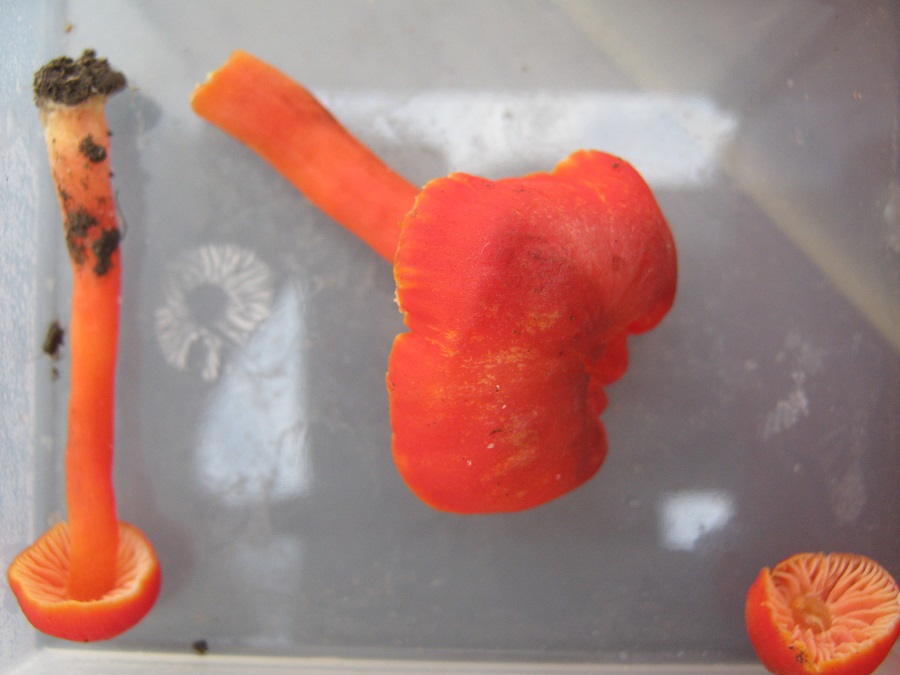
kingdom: Fungi
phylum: Basidiomycota
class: Agaricomycetes
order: Agaricales
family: Hygrophoraceae
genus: Hygrocybe
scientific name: Hygrocybe phaeococcinea
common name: sortdugget vokshat
